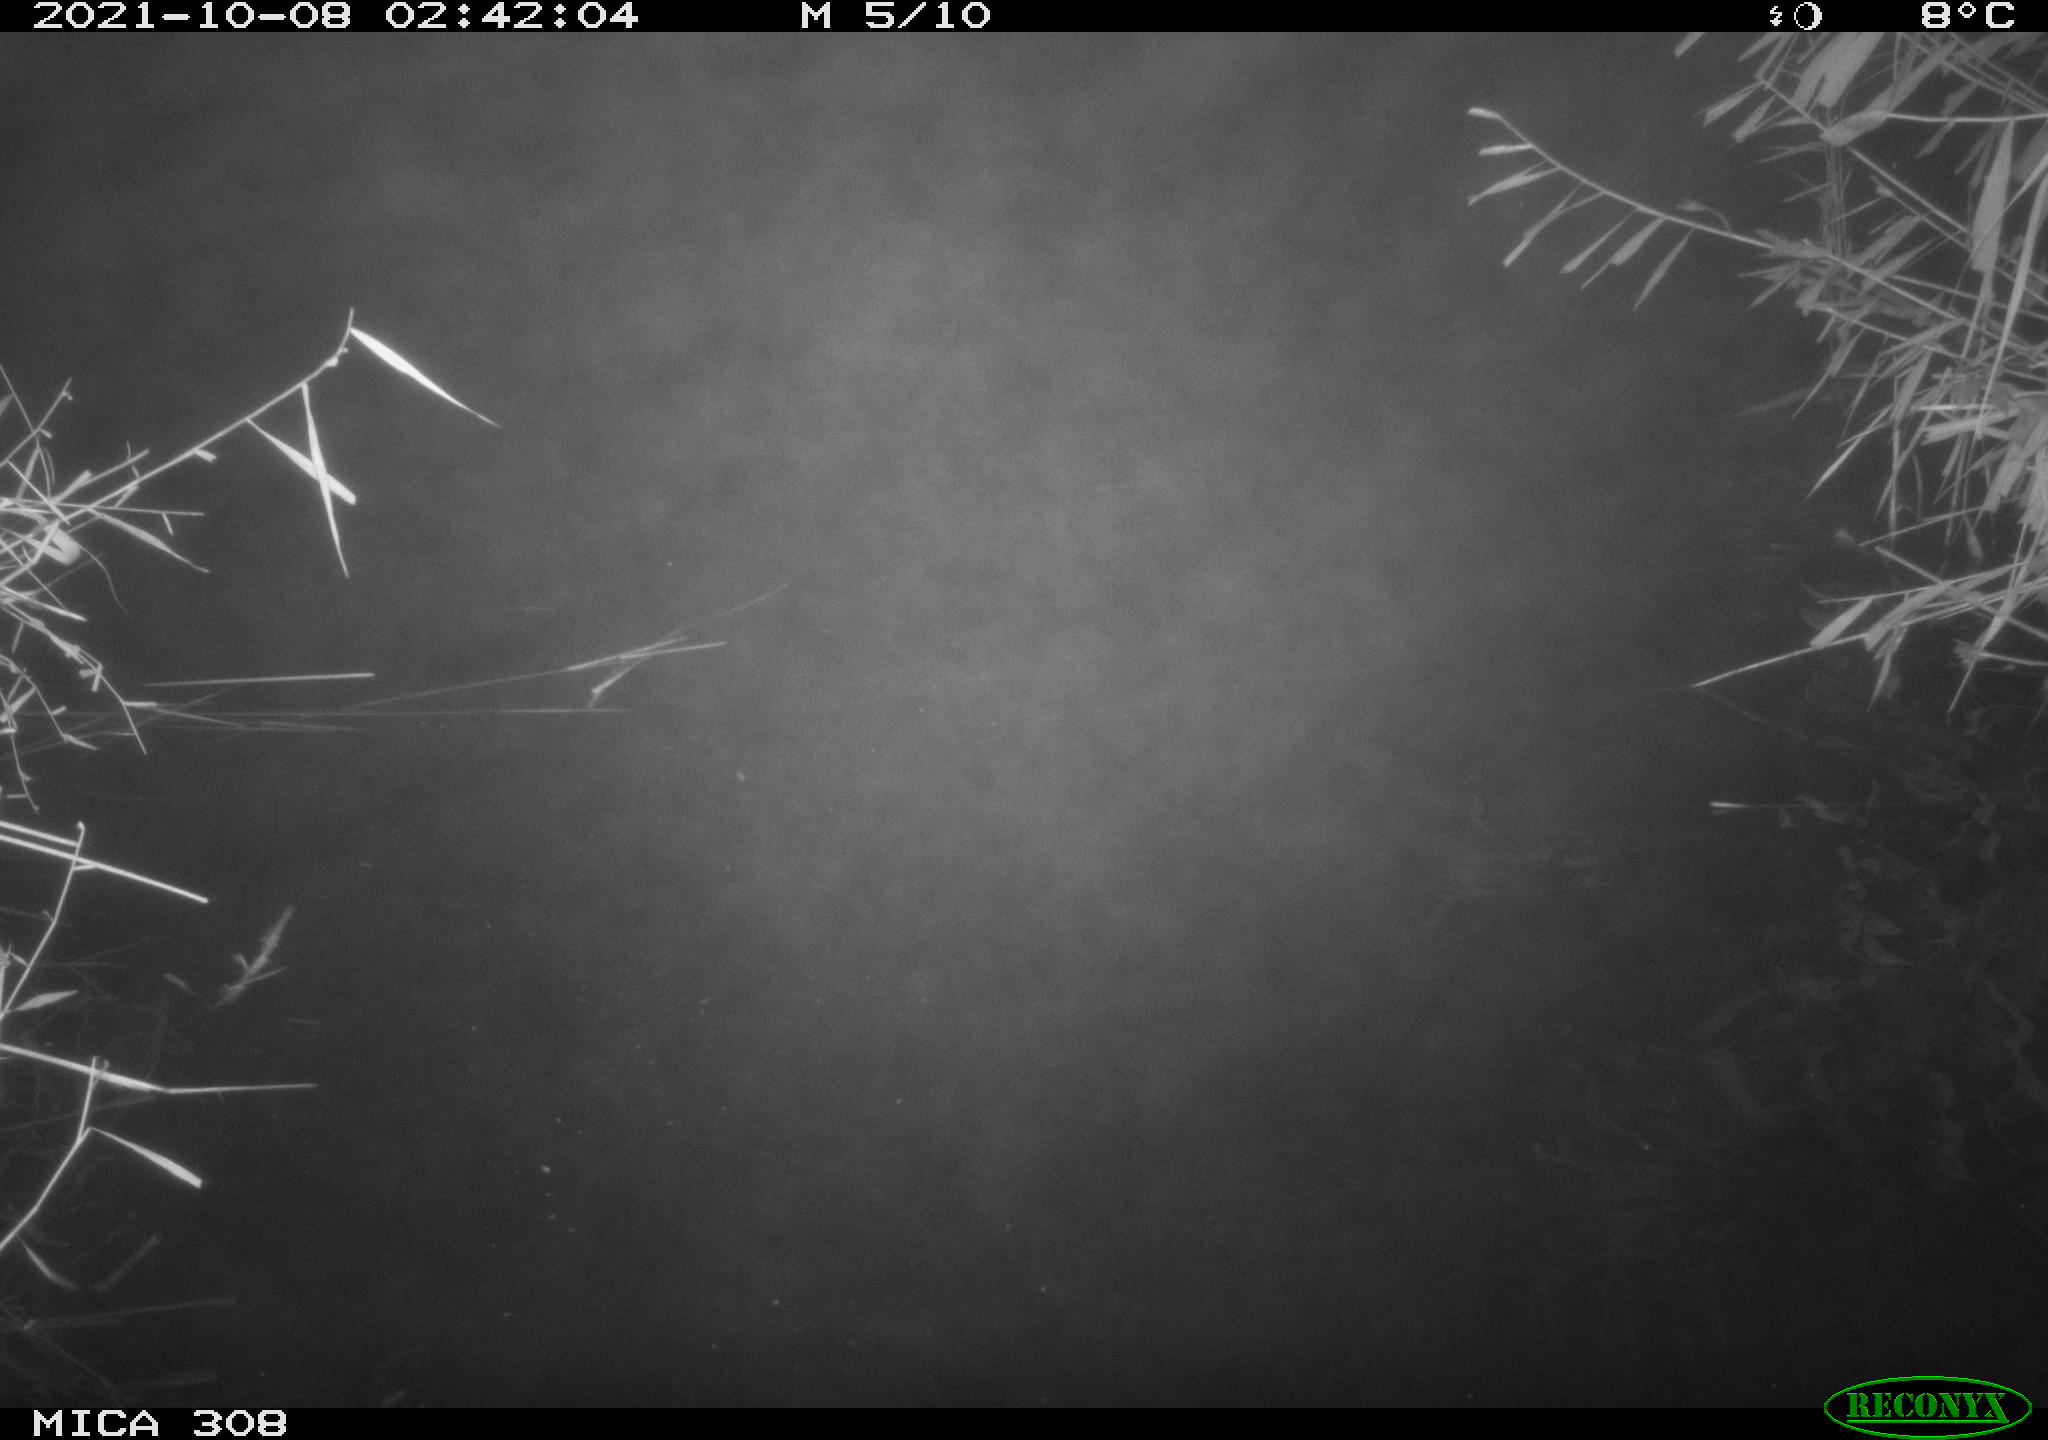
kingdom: Animalia
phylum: Chordata
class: Mammalia
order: Rodentia
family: Cricetidae
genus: Ondatra
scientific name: Ondatra zibethicus
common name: Muskrat
